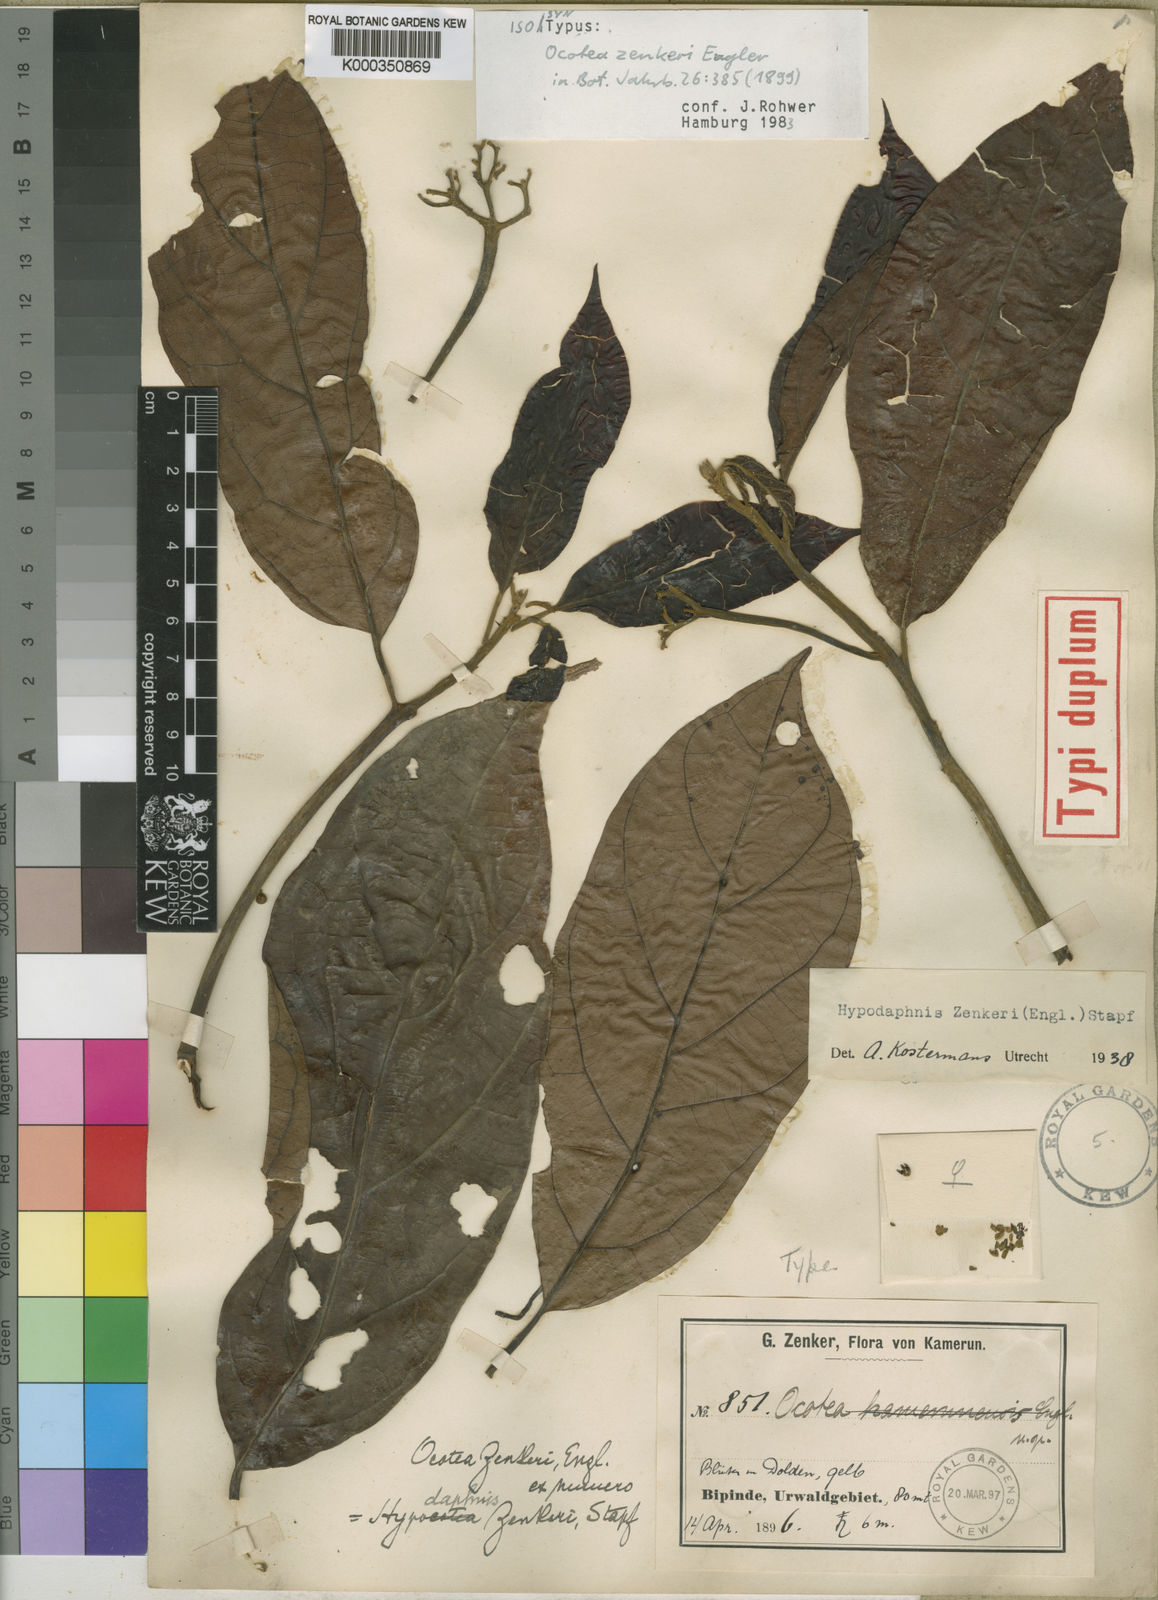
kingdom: Plantae
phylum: Tracheophyta
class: Magnoliopsida
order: Laurales
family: Lauraceae
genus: Hypodaphnis
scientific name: Hypodaphnis zenkeri
